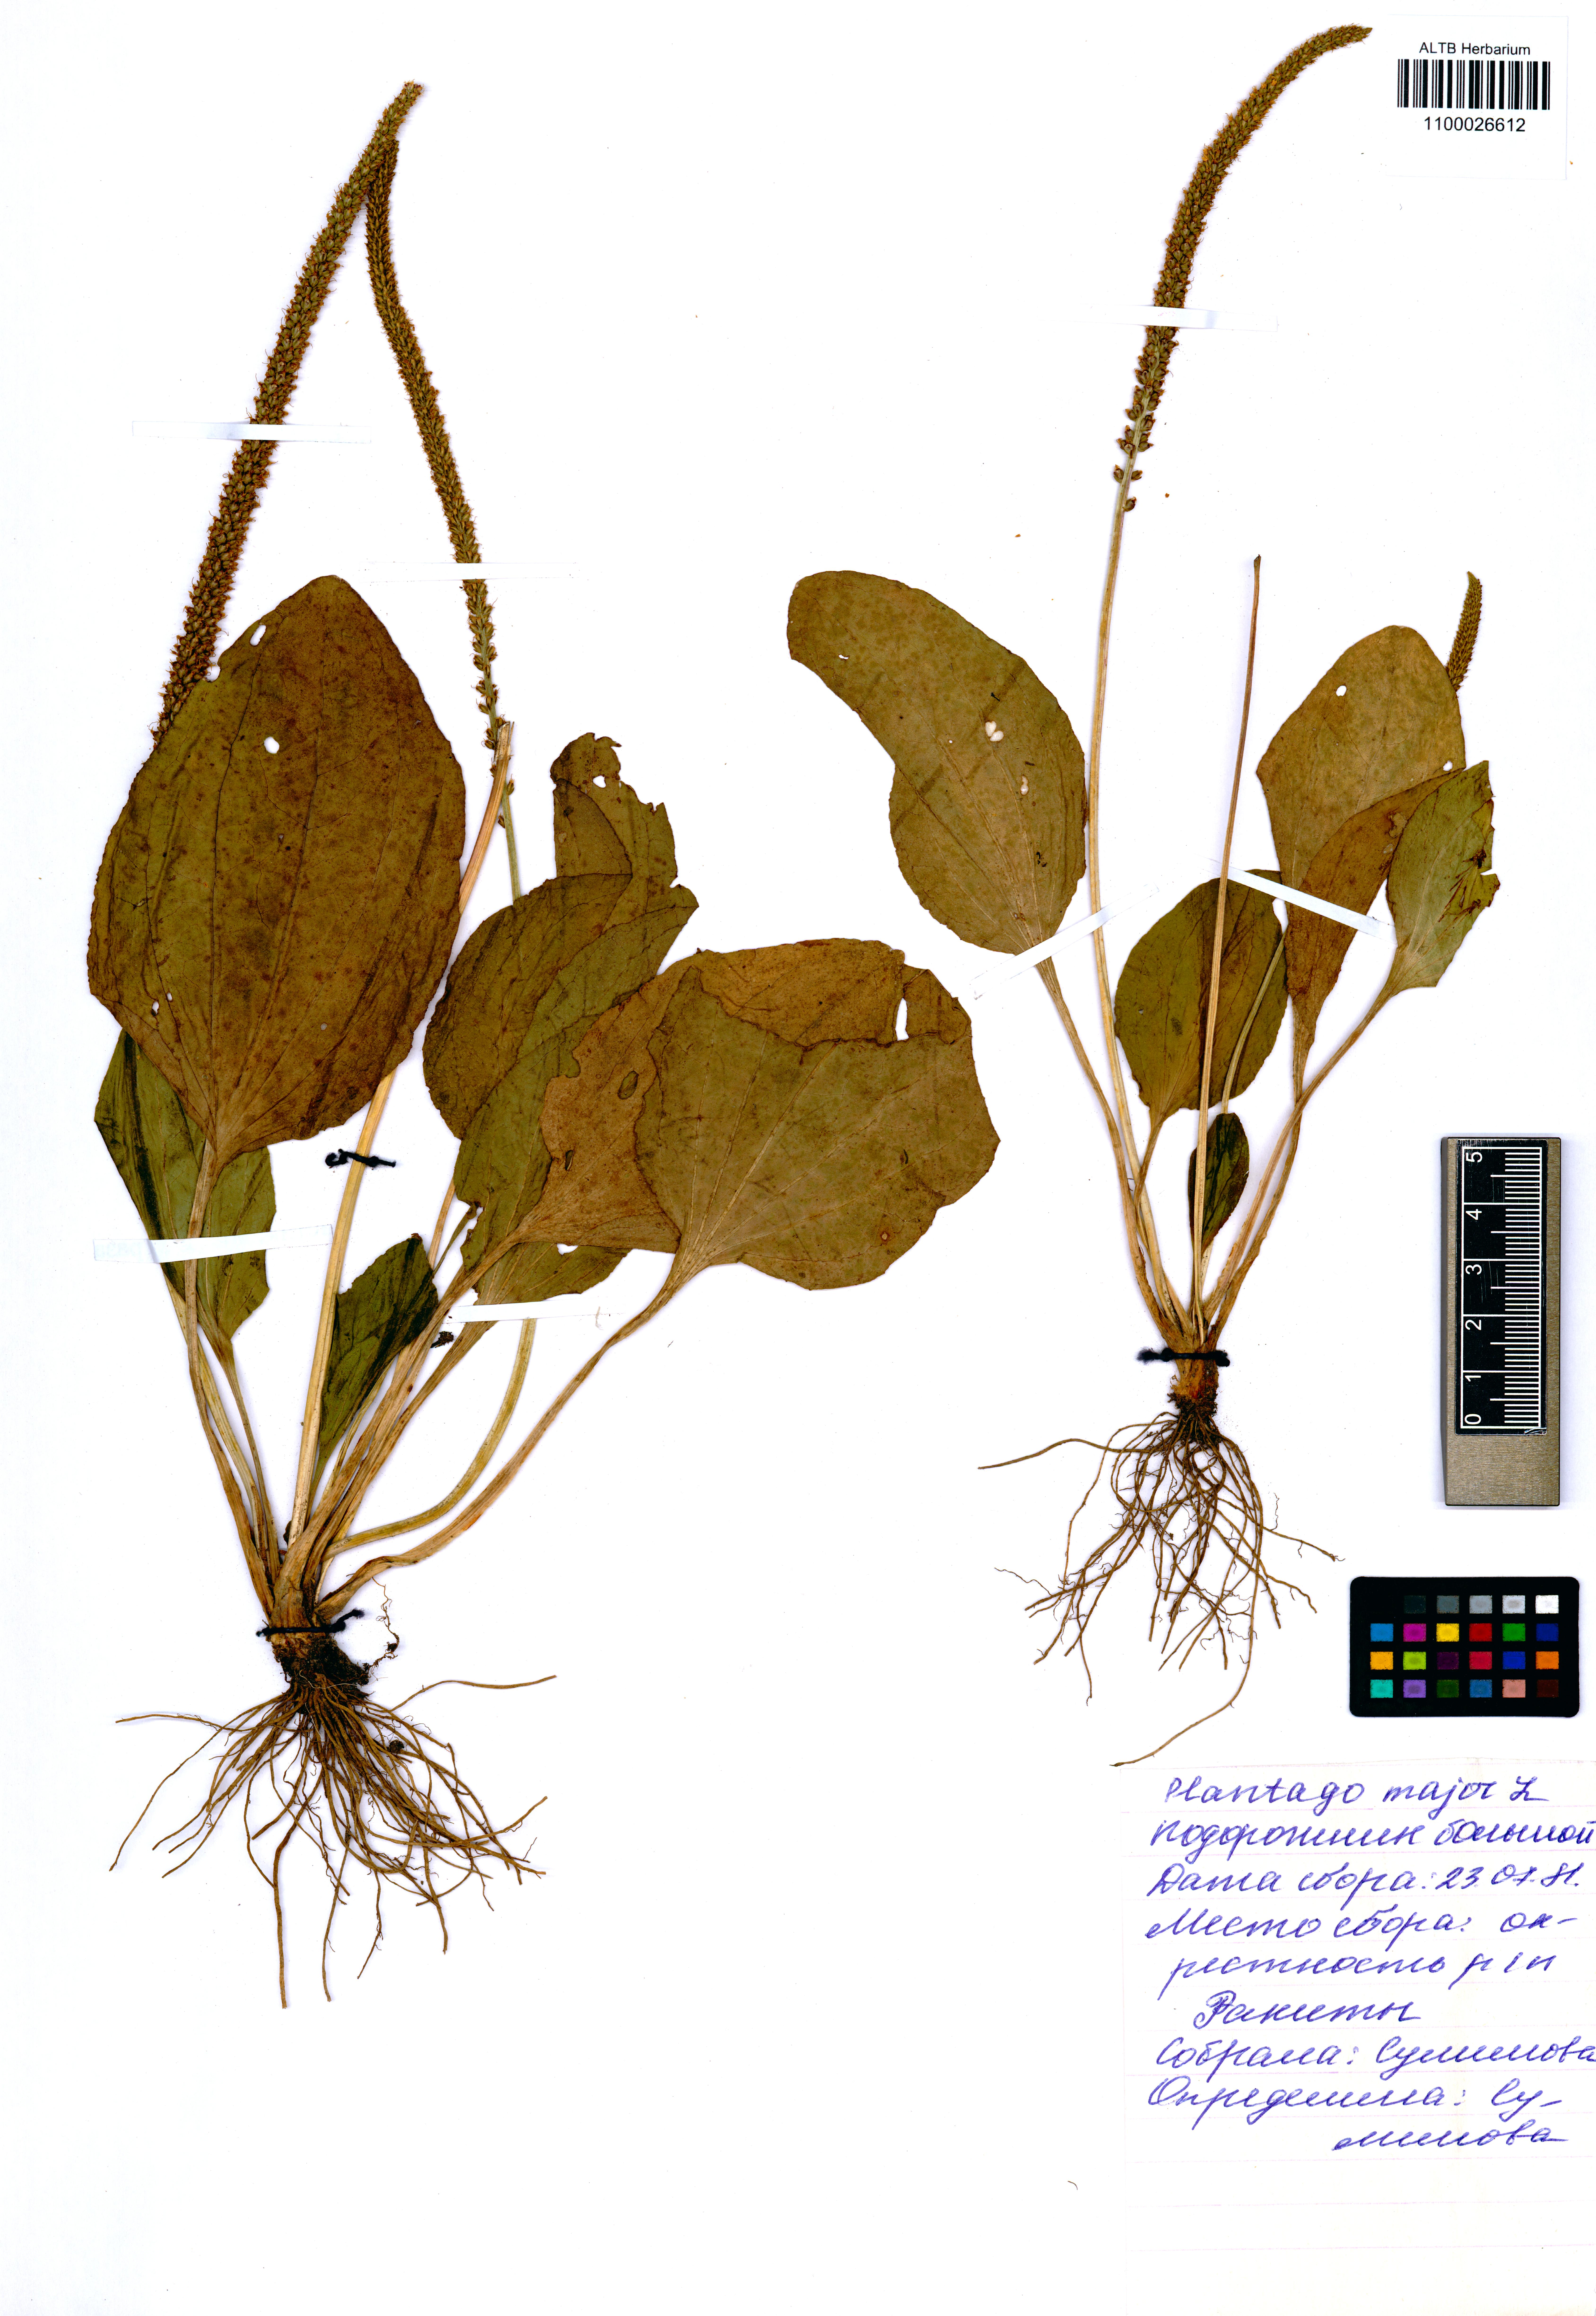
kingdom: Plantae
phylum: Tracheophyta
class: Magnoliopsida
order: Lamiales
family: Plantaginaceae
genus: Plantago
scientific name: Plantago major
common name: Common plantain
